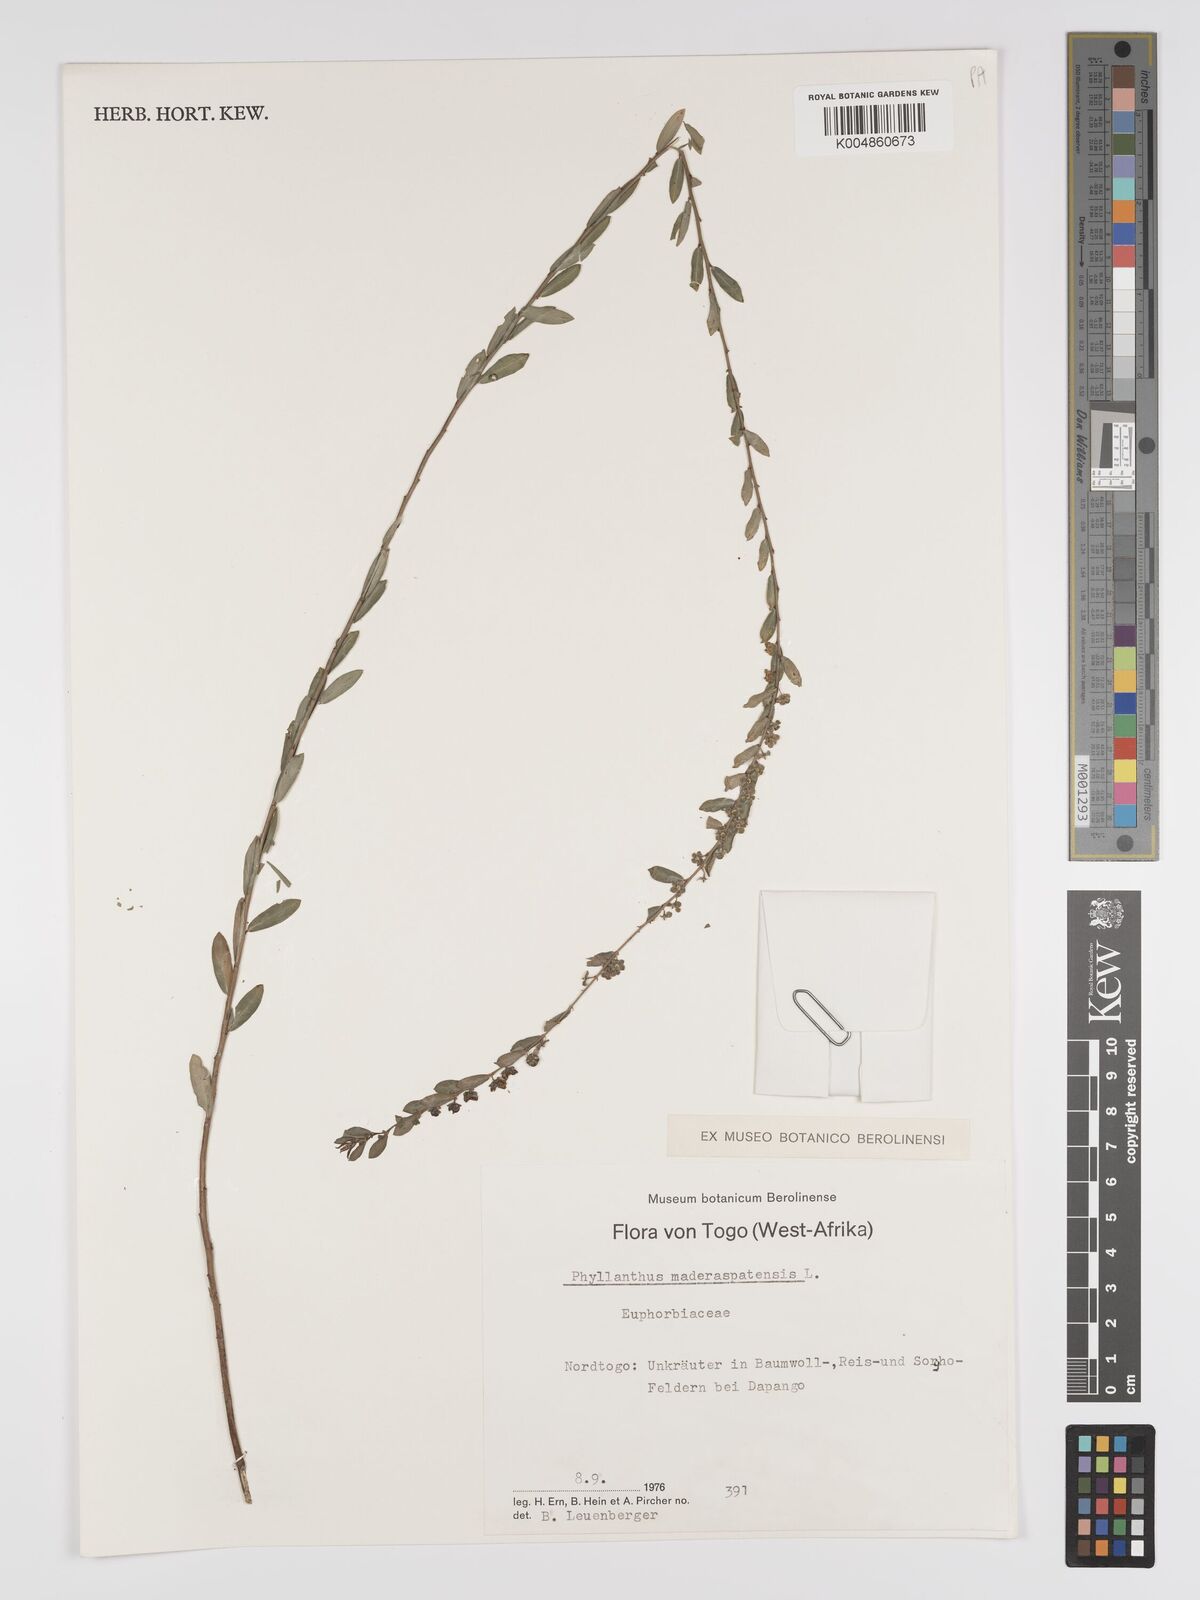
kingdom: Plantae
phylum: Tracheophyta
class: Magnoliopsida
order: Malpighiales
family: Phyllanthaceae
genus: Phyllanthus
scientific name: Phyllanthus
